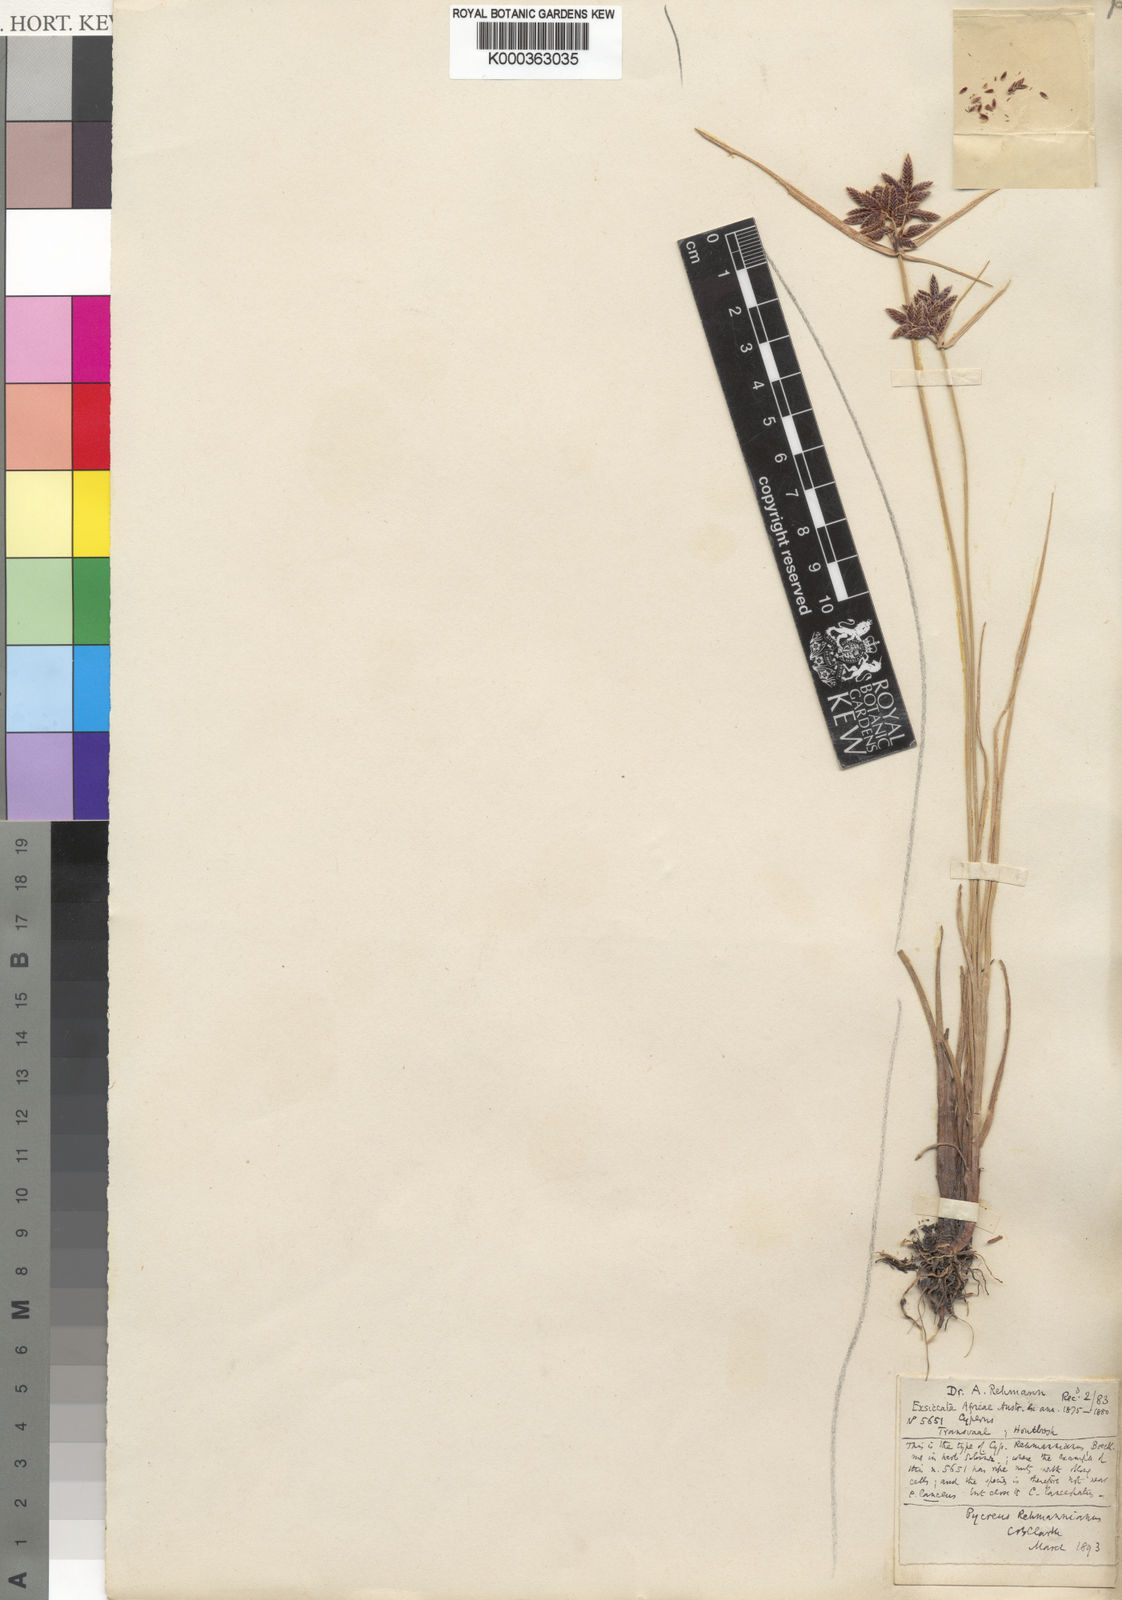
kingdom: Plantae
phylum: Tracheophyta
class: Liliopsida
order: Poales
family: Cyperaceae
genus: Cyperus
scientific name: Cyperus flavescens
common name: Yellow galingale
